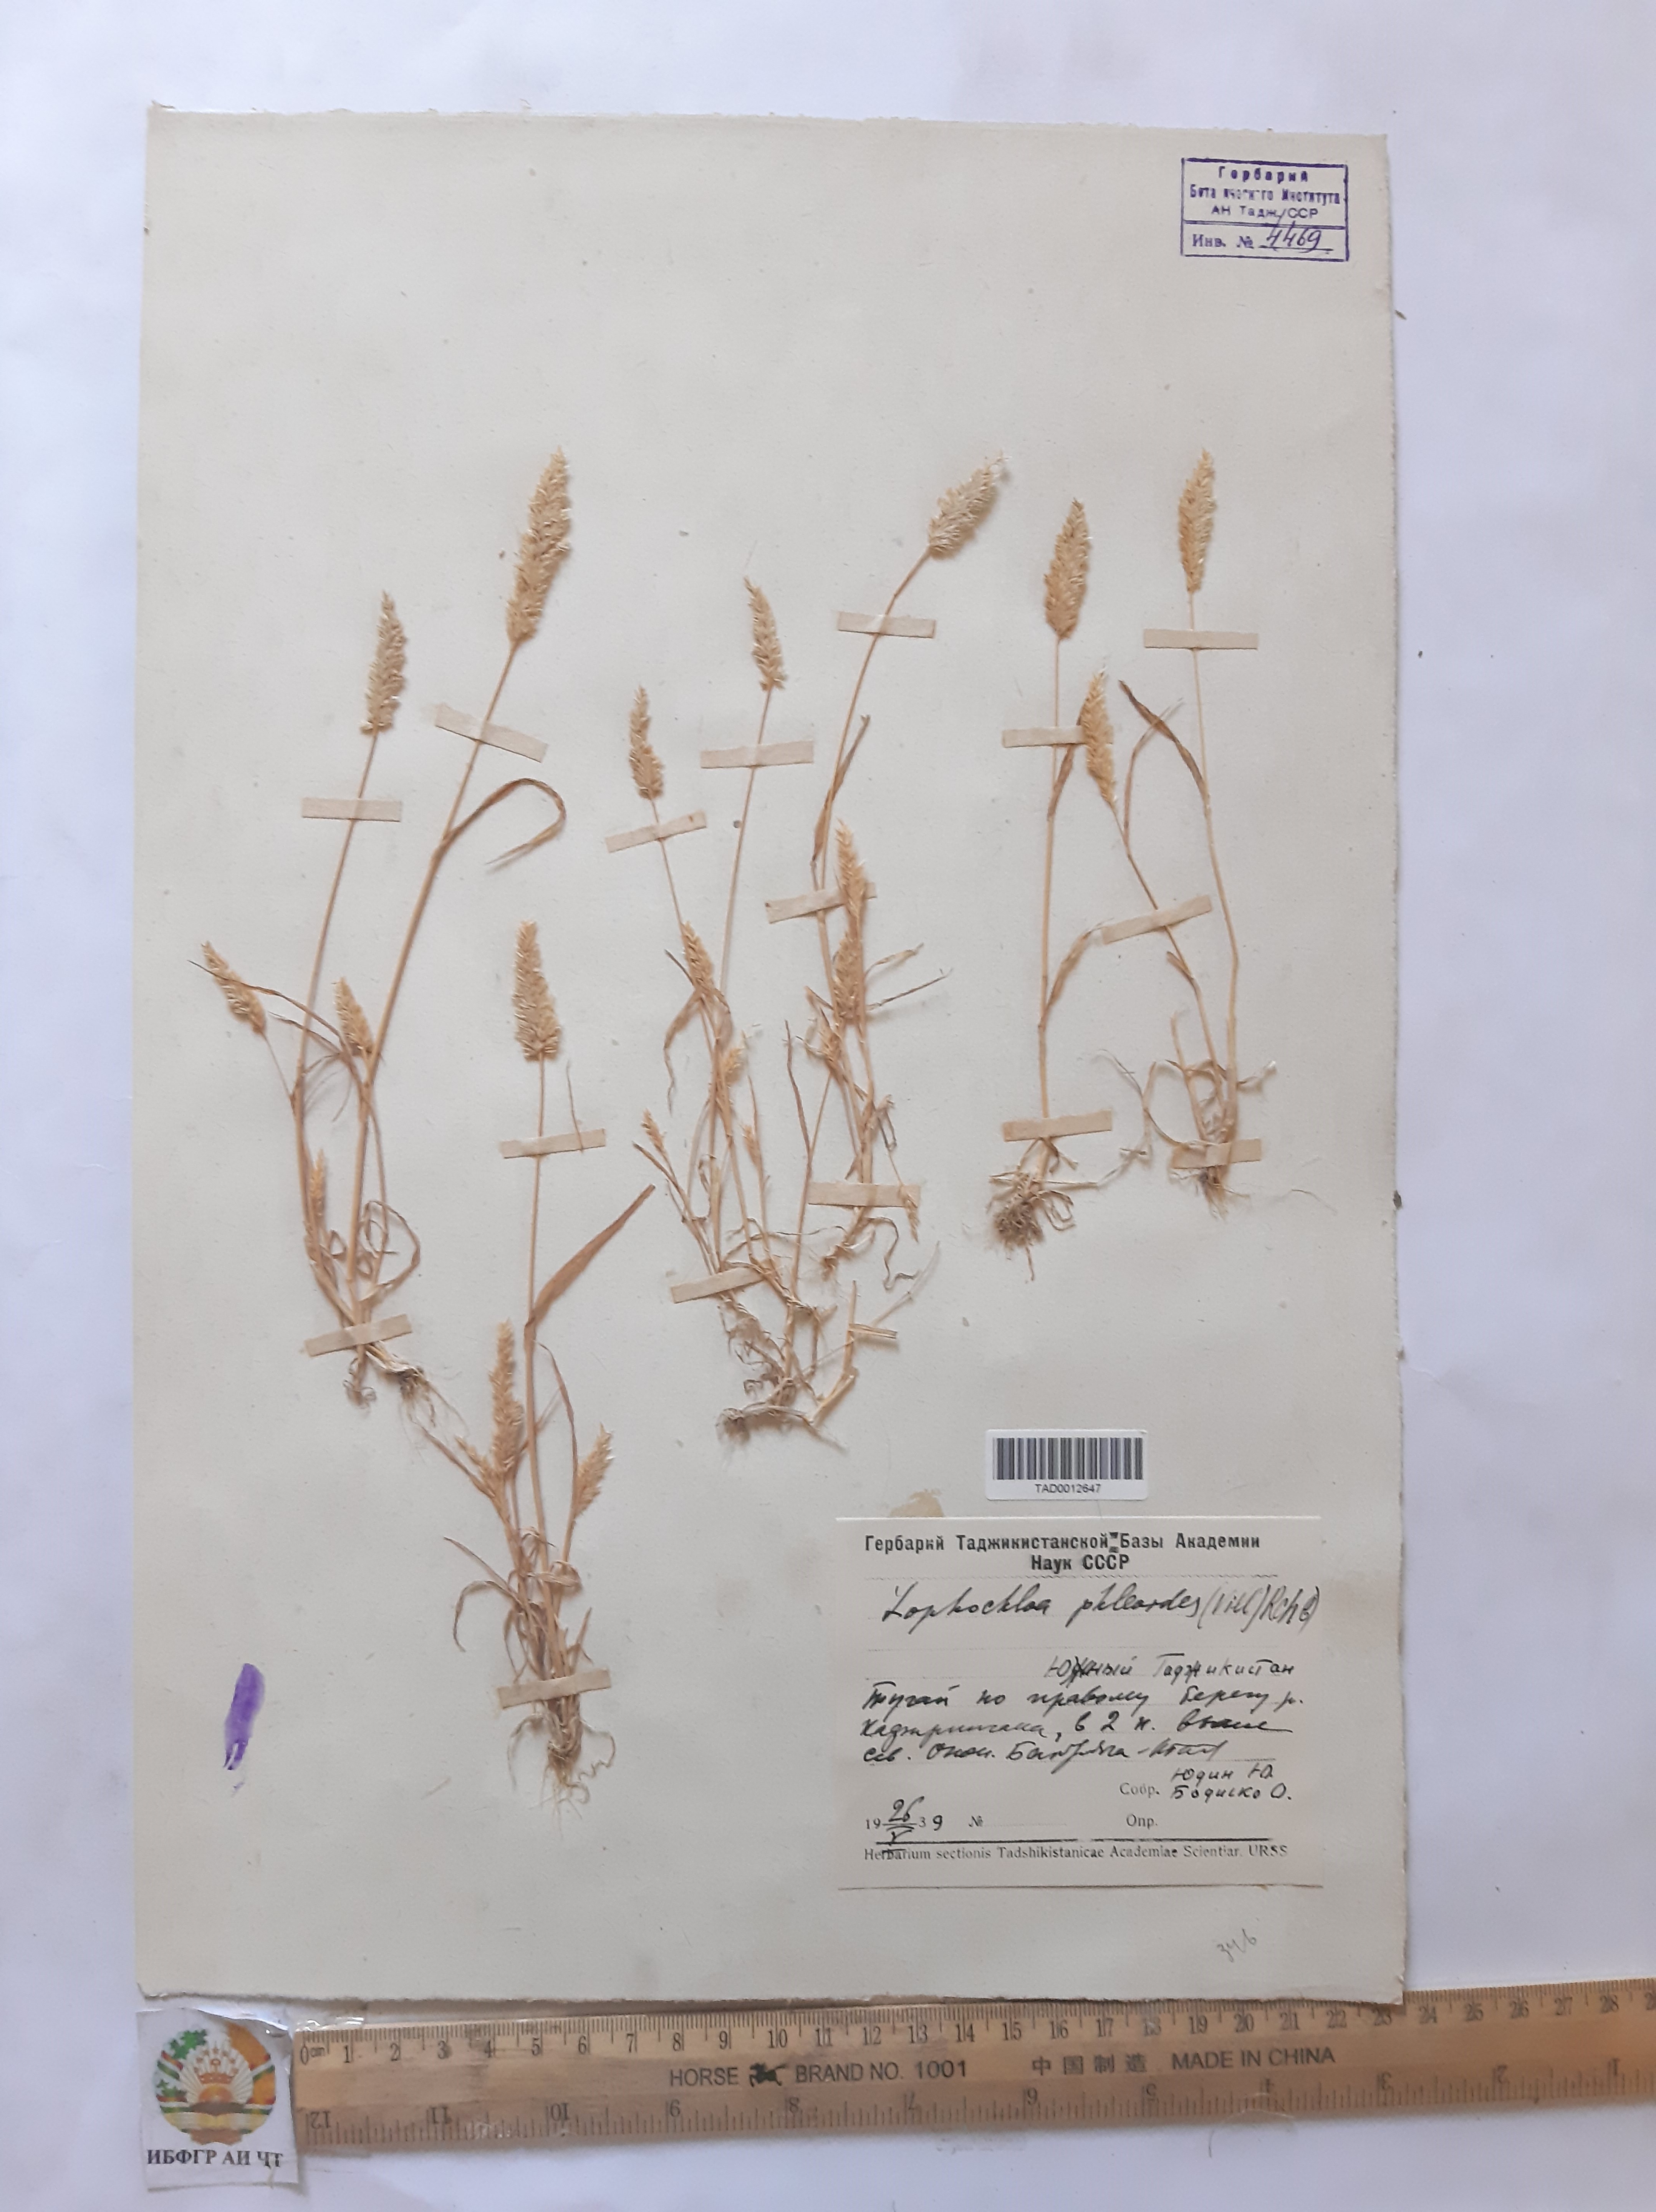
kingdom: Plantae
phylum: Tracheophyta
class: Liliopsida
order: Poales
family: Poaceae
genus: Rostraria
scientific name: Rostraria cristata
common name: Mediterranean hair-grass
